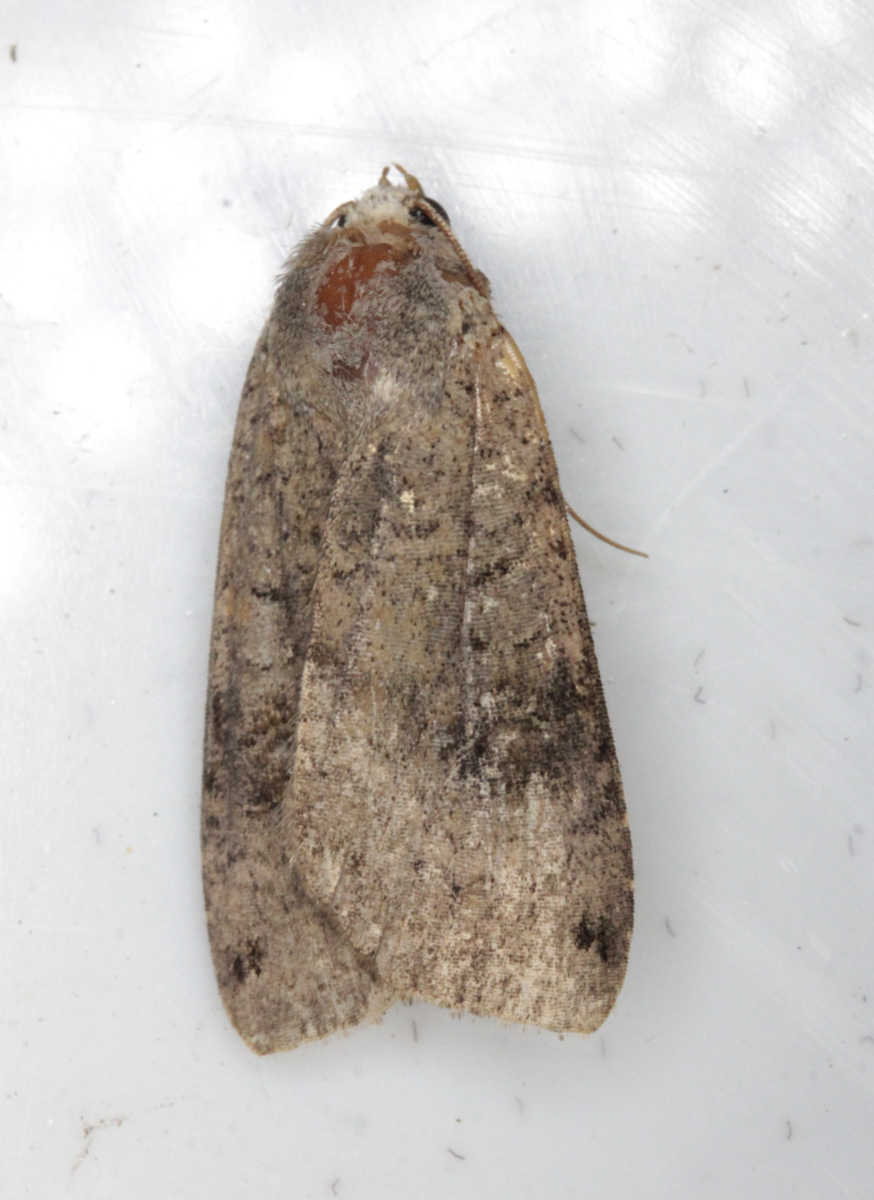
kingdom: Animalia
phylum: Arthropoda
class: Insecta
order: Lepidoptera
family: Noctuidae
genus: Xestia
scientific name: Xestia baja
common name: Dotted clay
